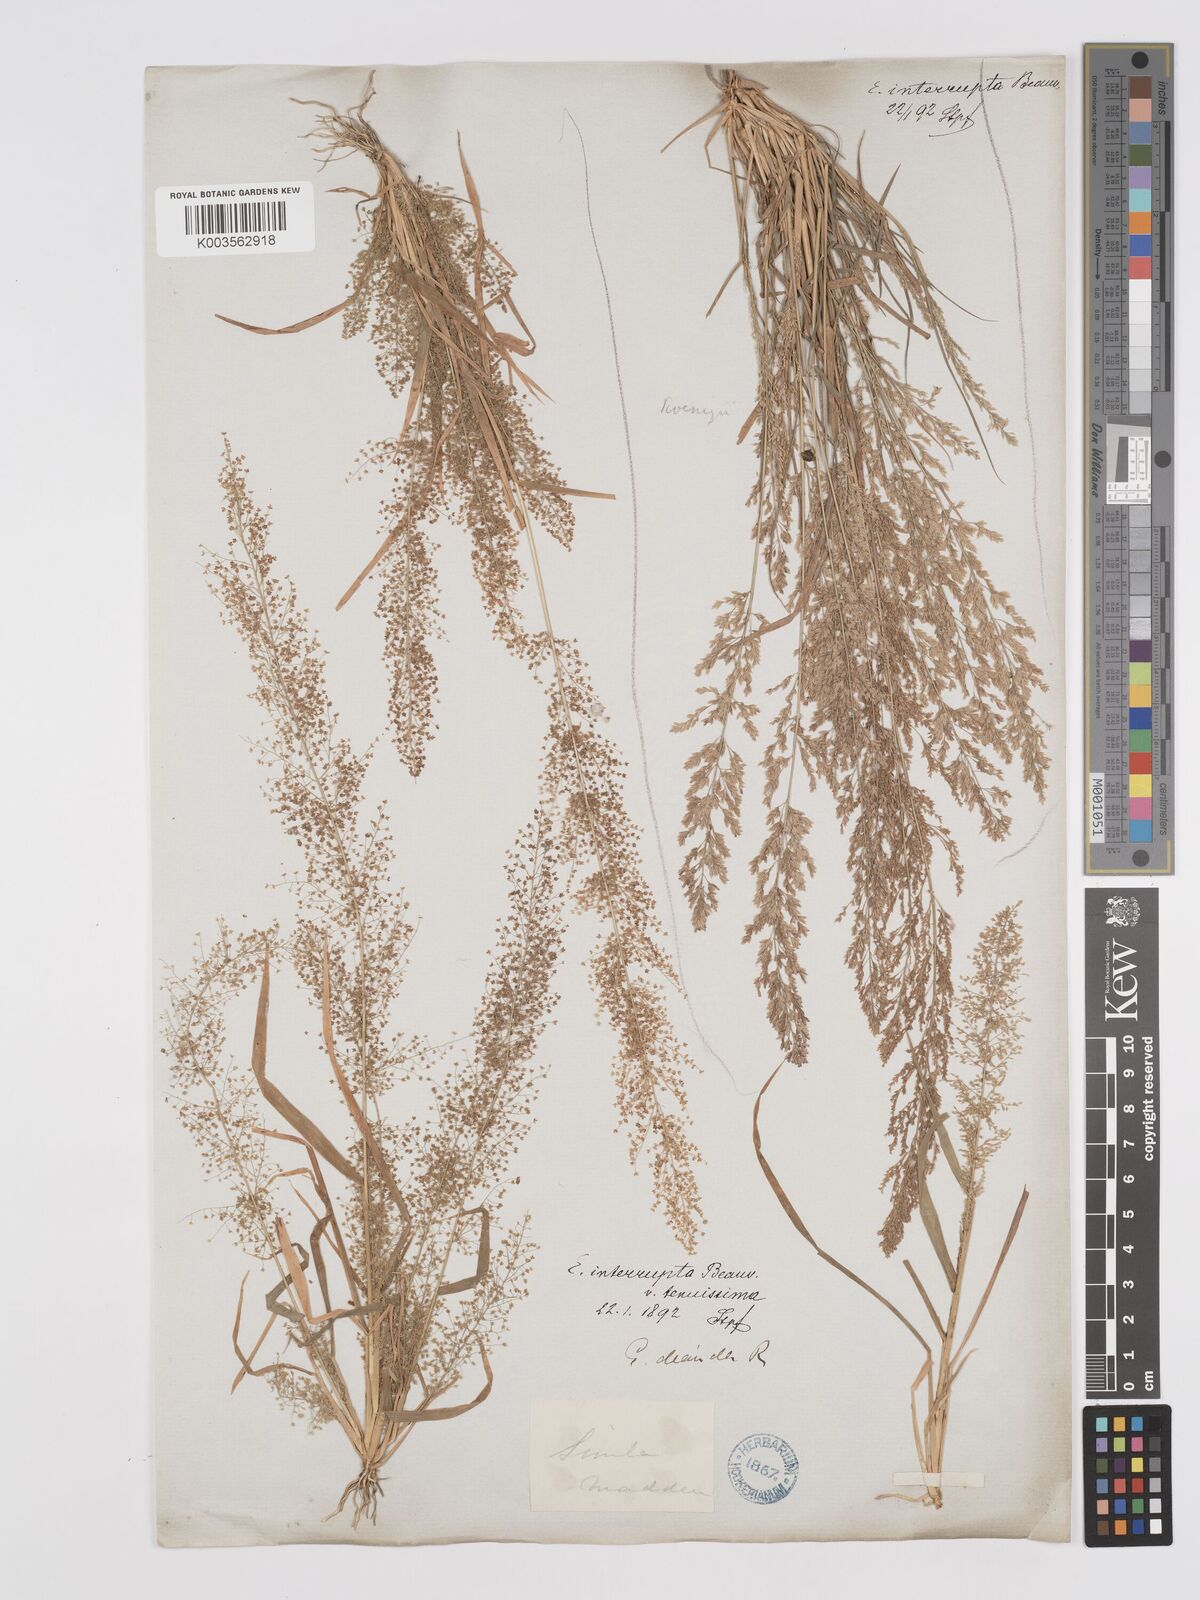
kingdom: Plantae
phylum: Tracheophyta
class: Liliopsida
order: Poales
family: Poaceae
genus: Eragrostis
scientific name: Eragrostis japonica
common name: Pond lovegrass
